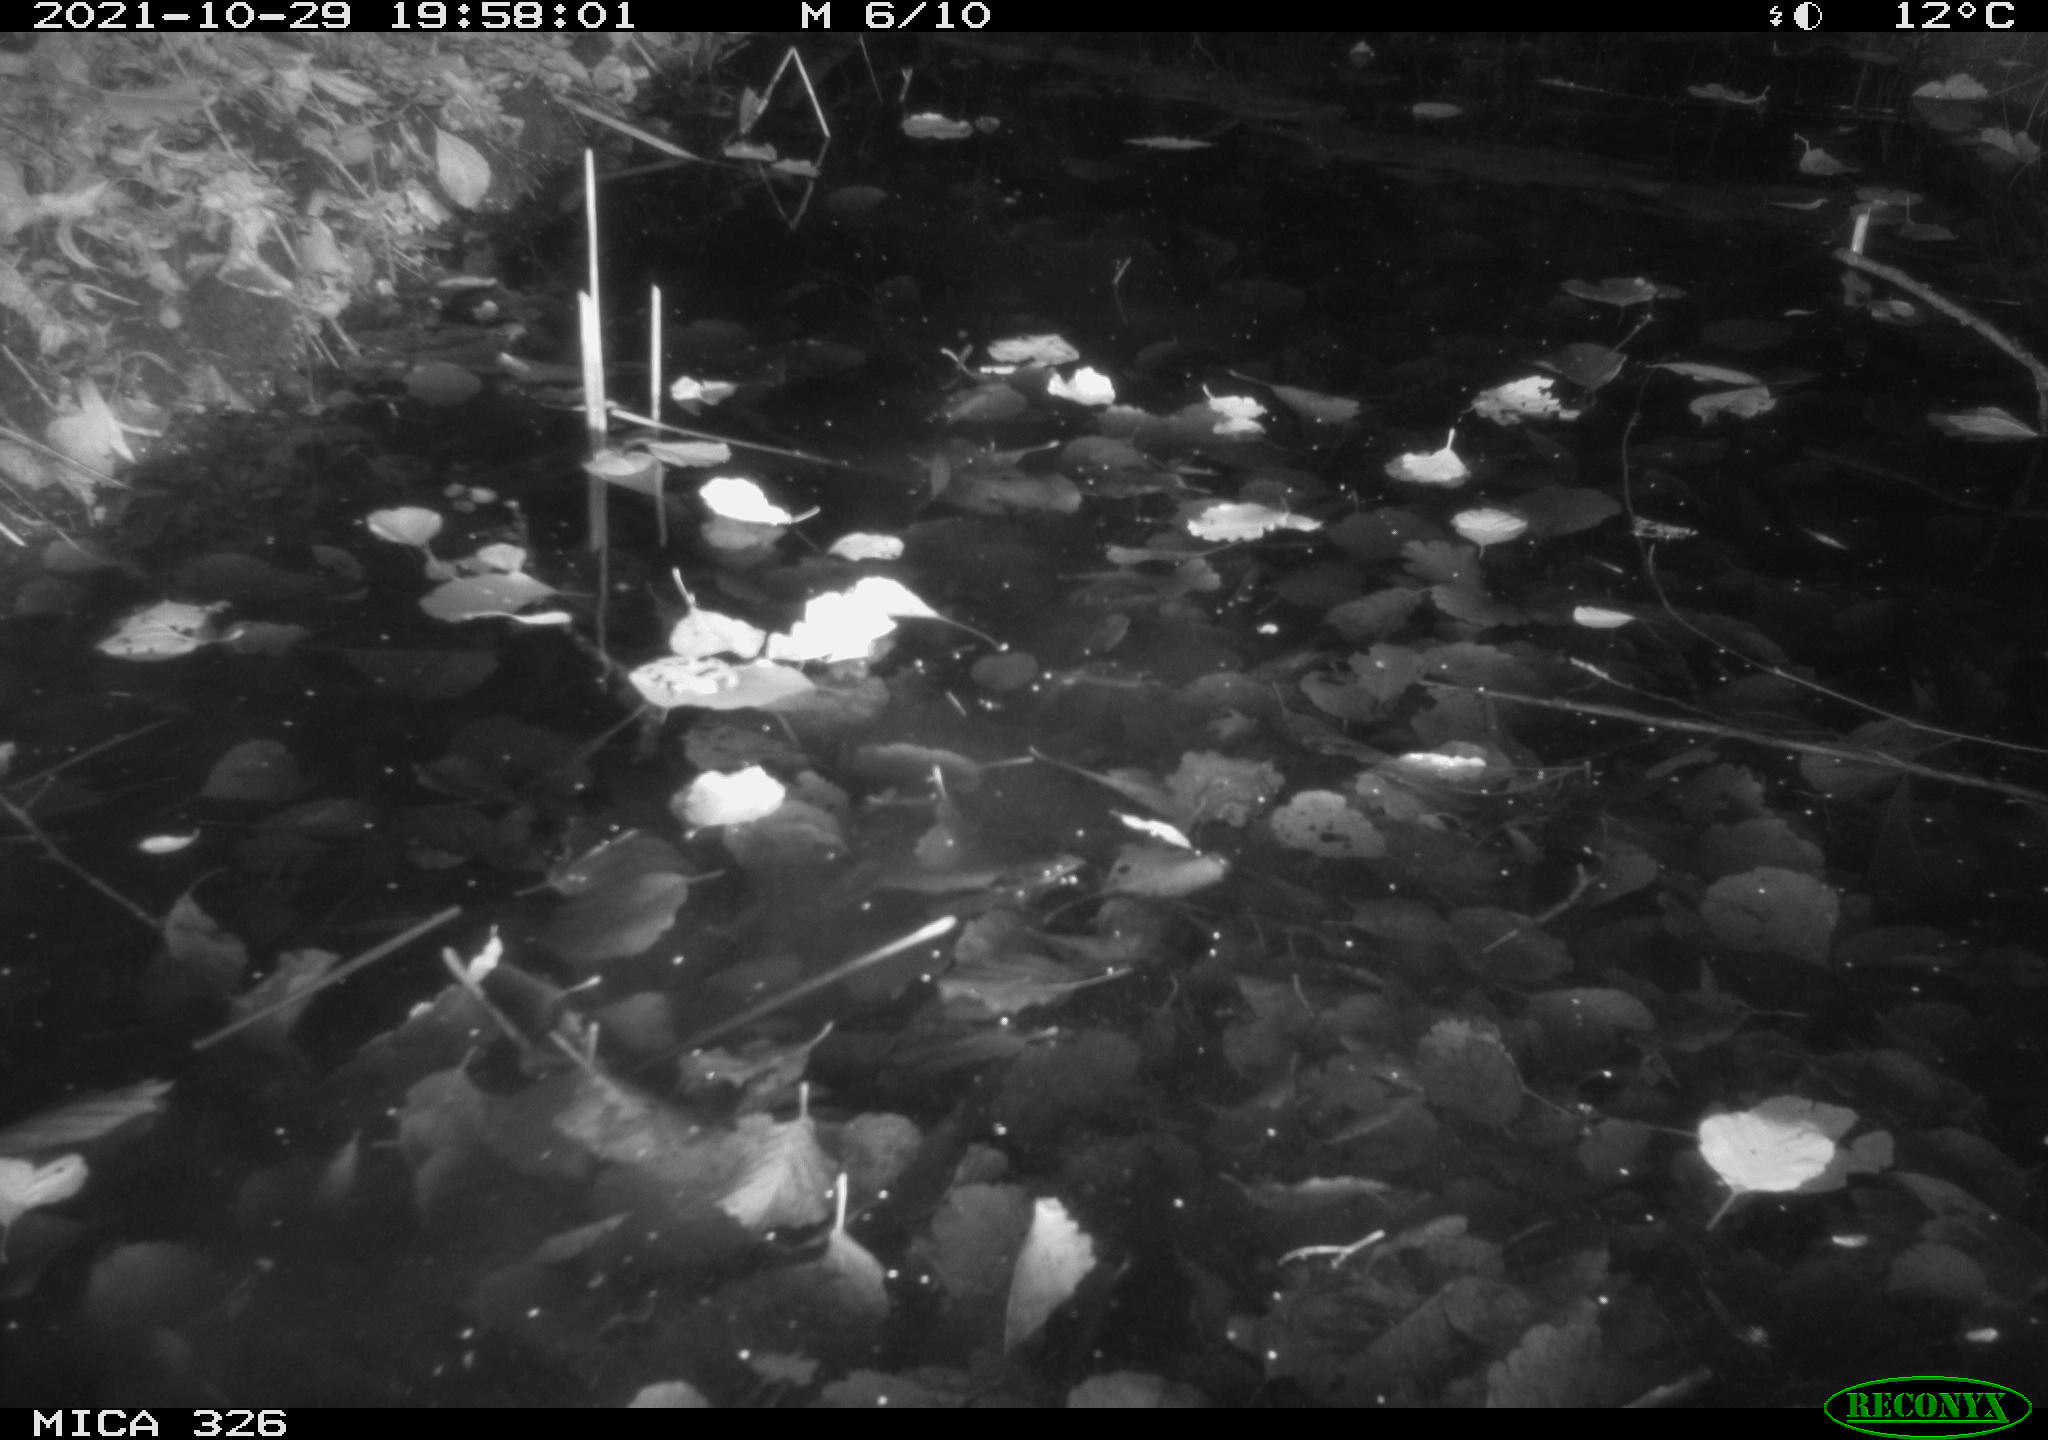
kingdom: Animalia
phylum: Chordata
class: Mammalia
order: Rodentia
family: Myocastoridae
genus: Myocastor
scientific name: Myocastor coypus
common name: Coypu
